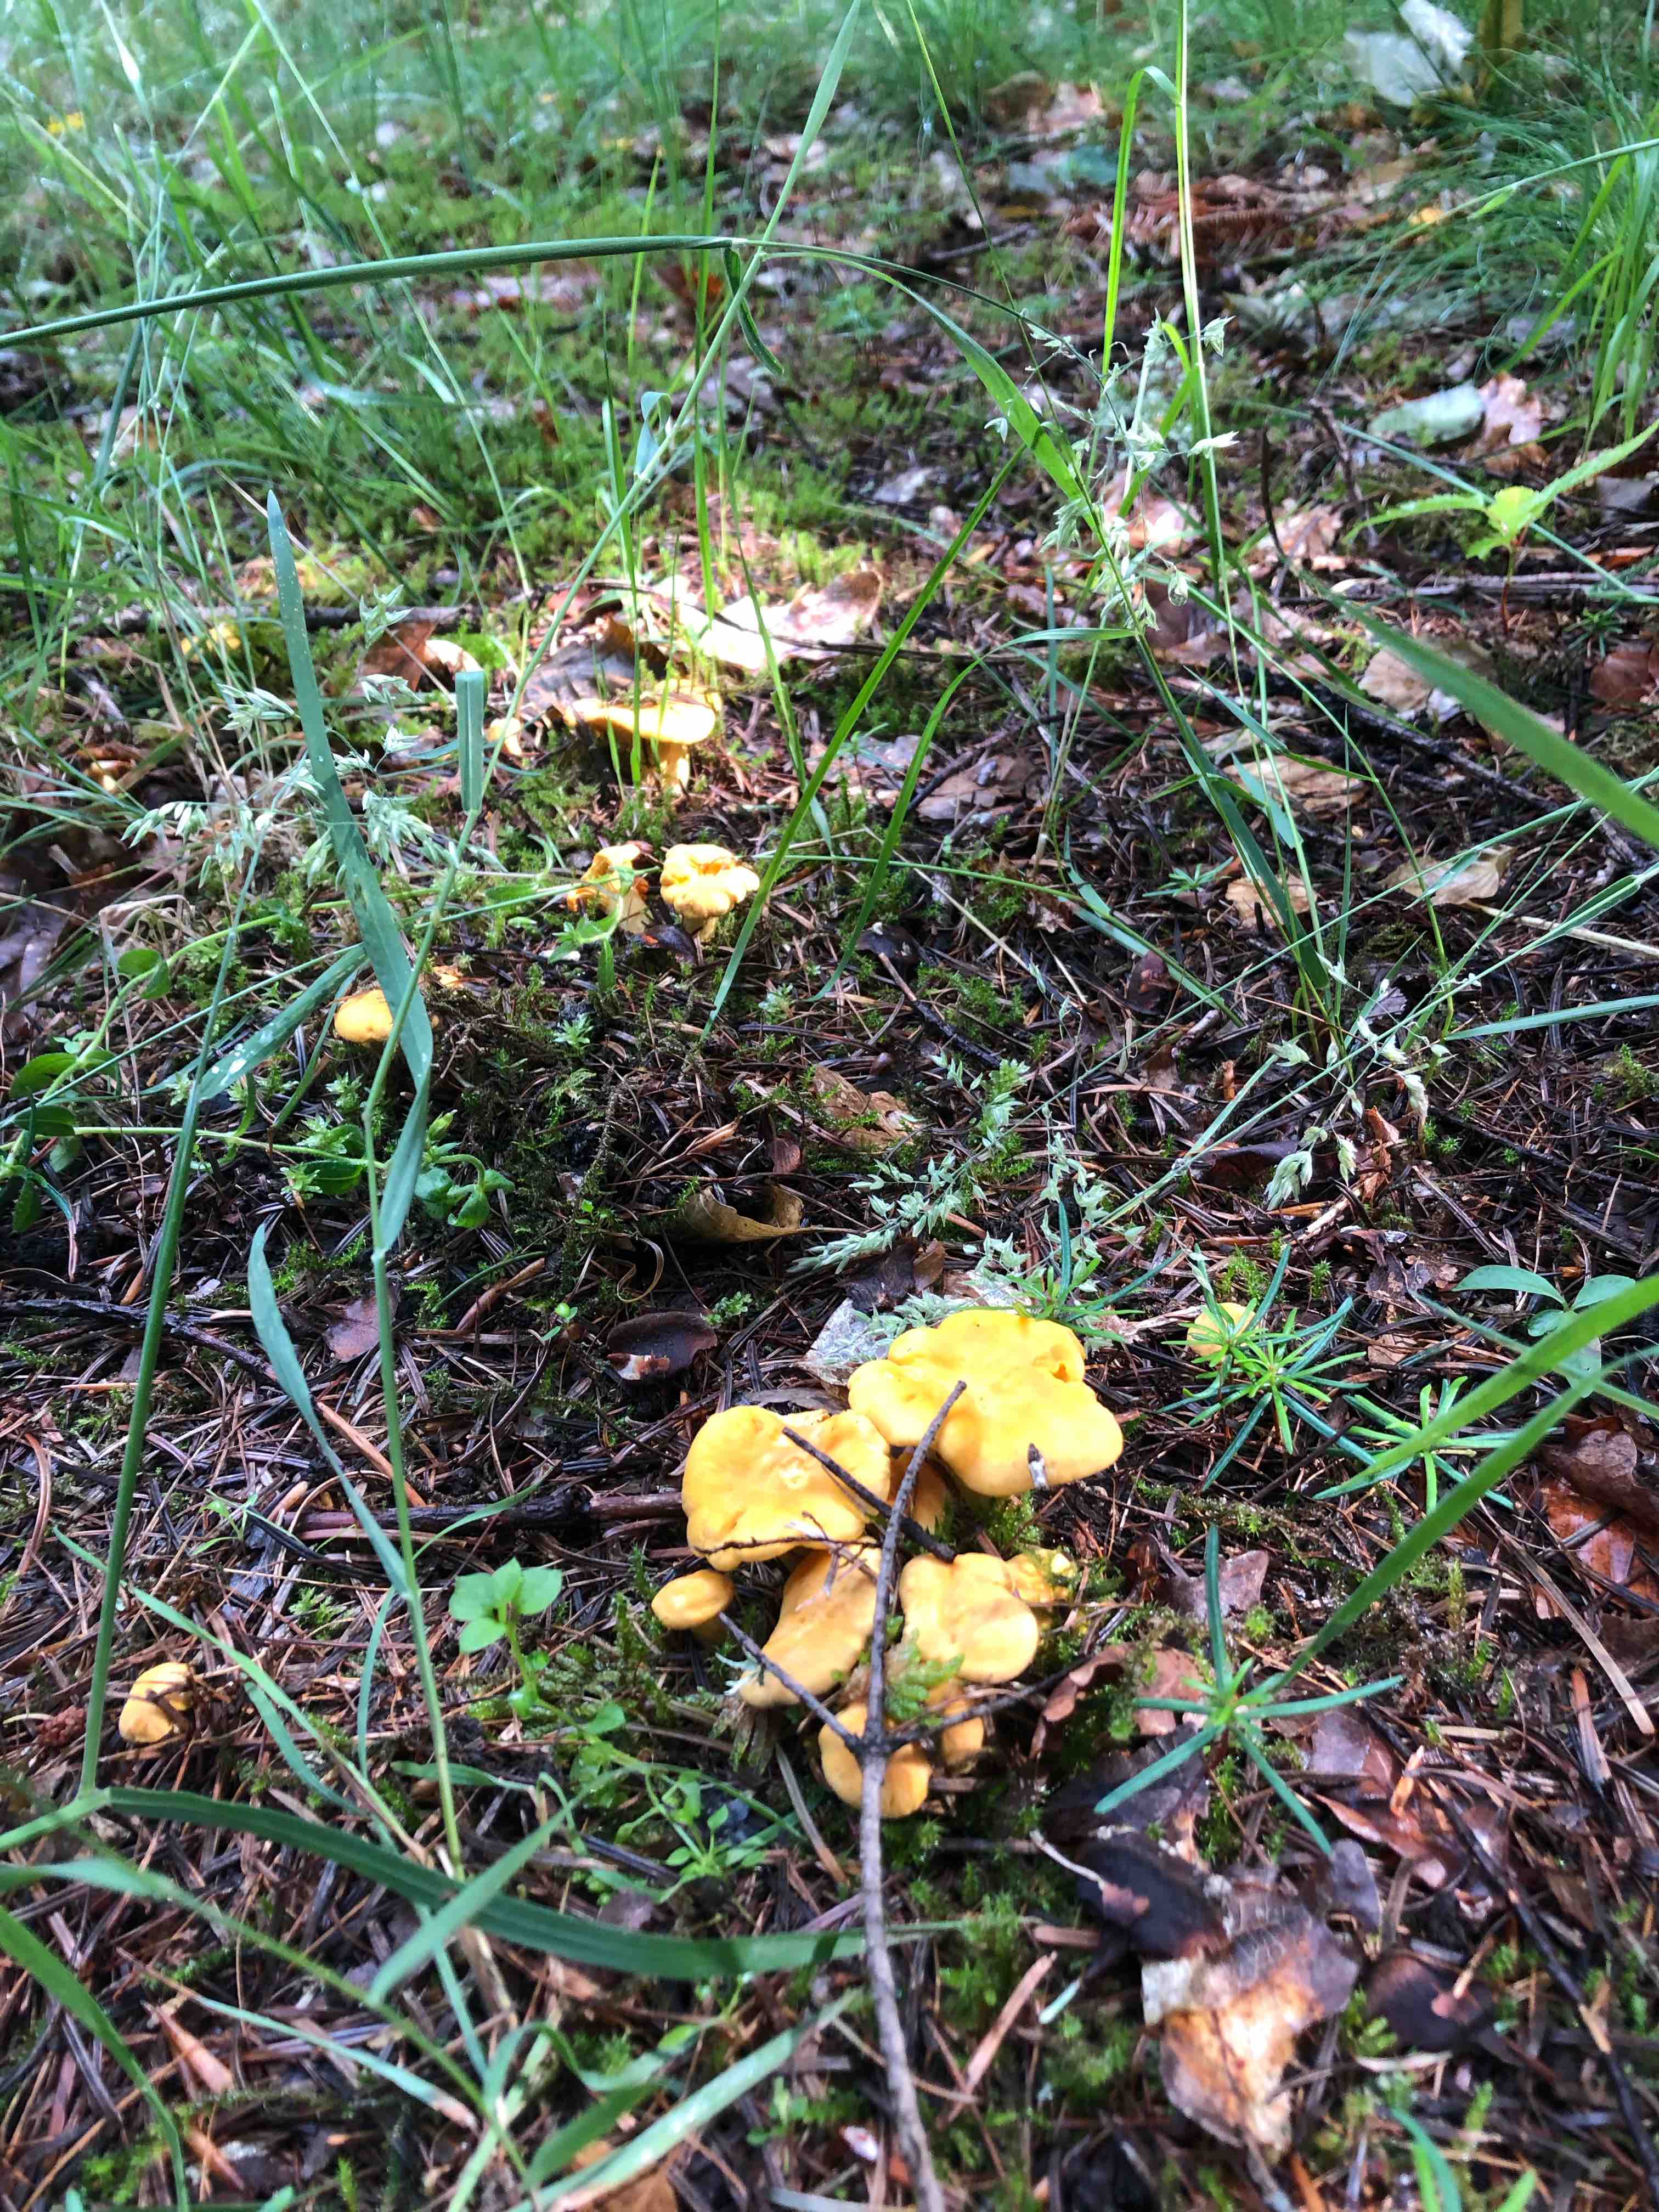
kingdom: Fungi
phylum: Basidiomycota
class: Agaricomycetes
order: Cantharellales
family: Hydnaceae
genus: Cantharellus
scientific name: Cantharellus cibarius
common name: almindelig kantarel
